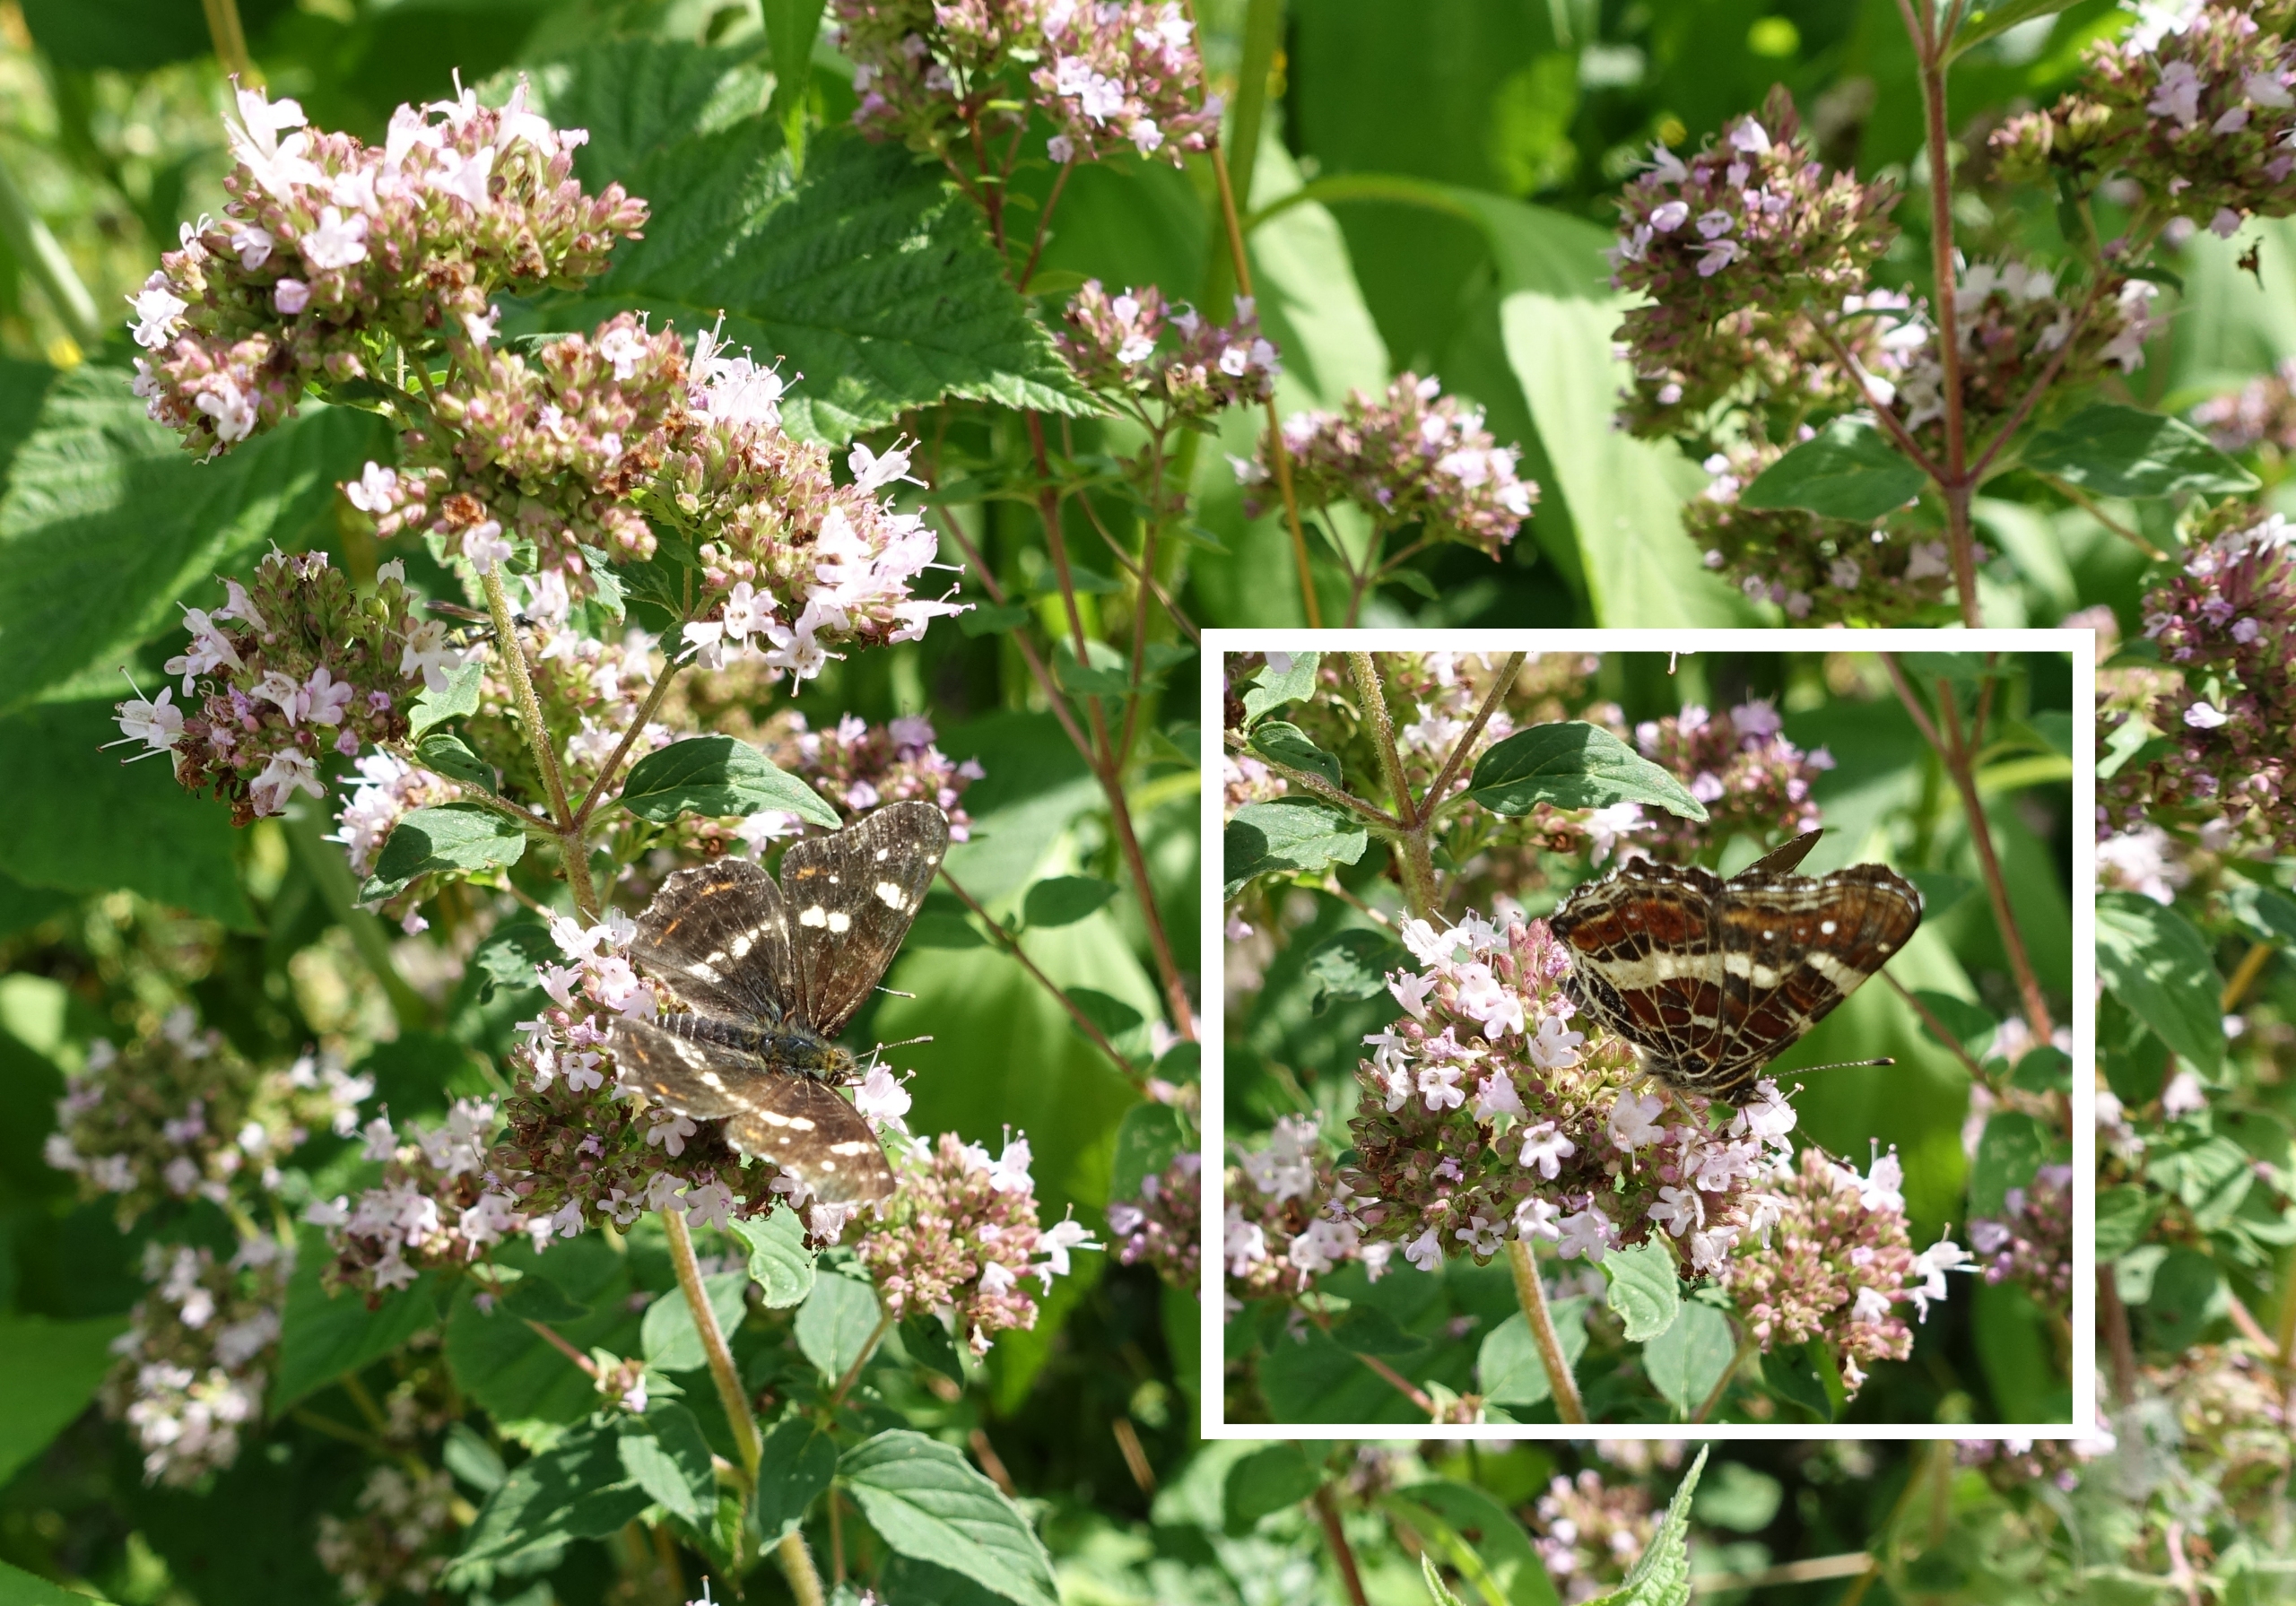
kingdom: Animalia
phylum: Arthropoda
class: Insecta
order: Lepidoptera
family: Nymphalidae
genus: Araschnia
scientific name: Araschnia levana
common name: Nældesommerfugl
